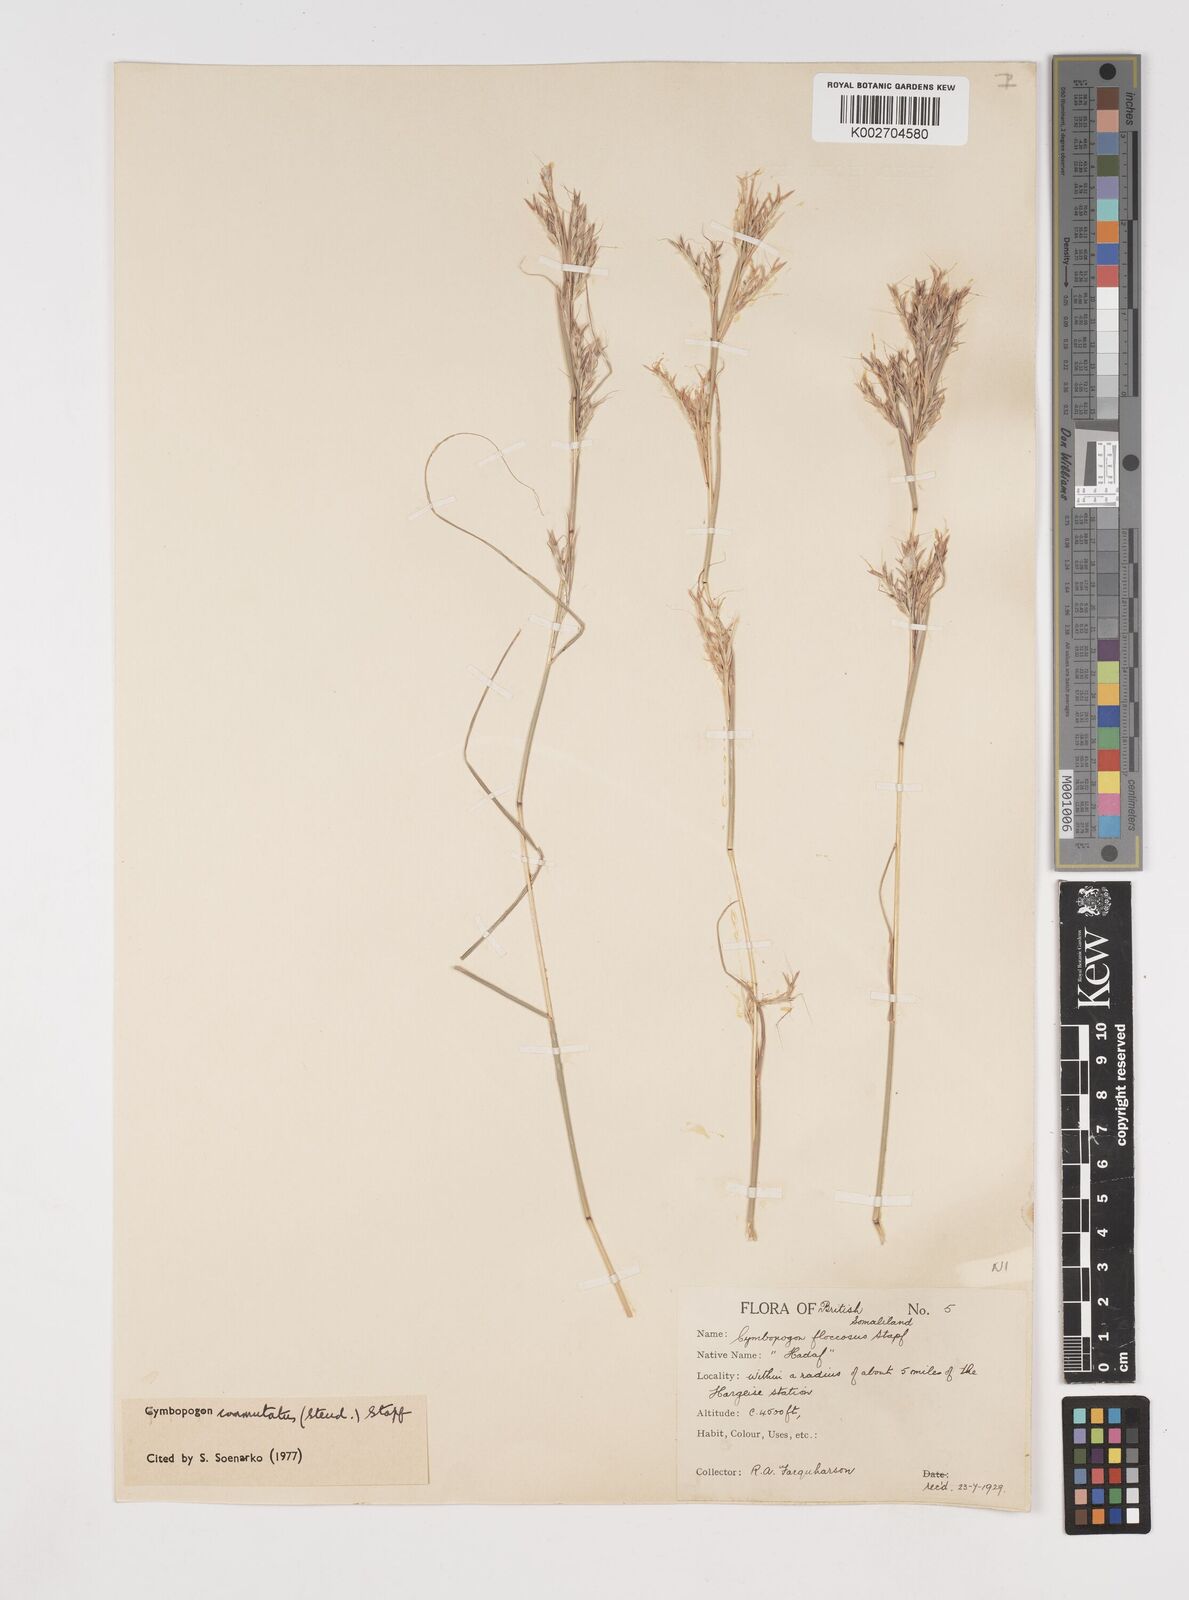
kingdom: Plantae
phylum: Tracheophyta
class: Liliopsida
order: Poales
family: Poaceae
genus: Cymbopogon
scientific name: Cymbopogon commutatus
